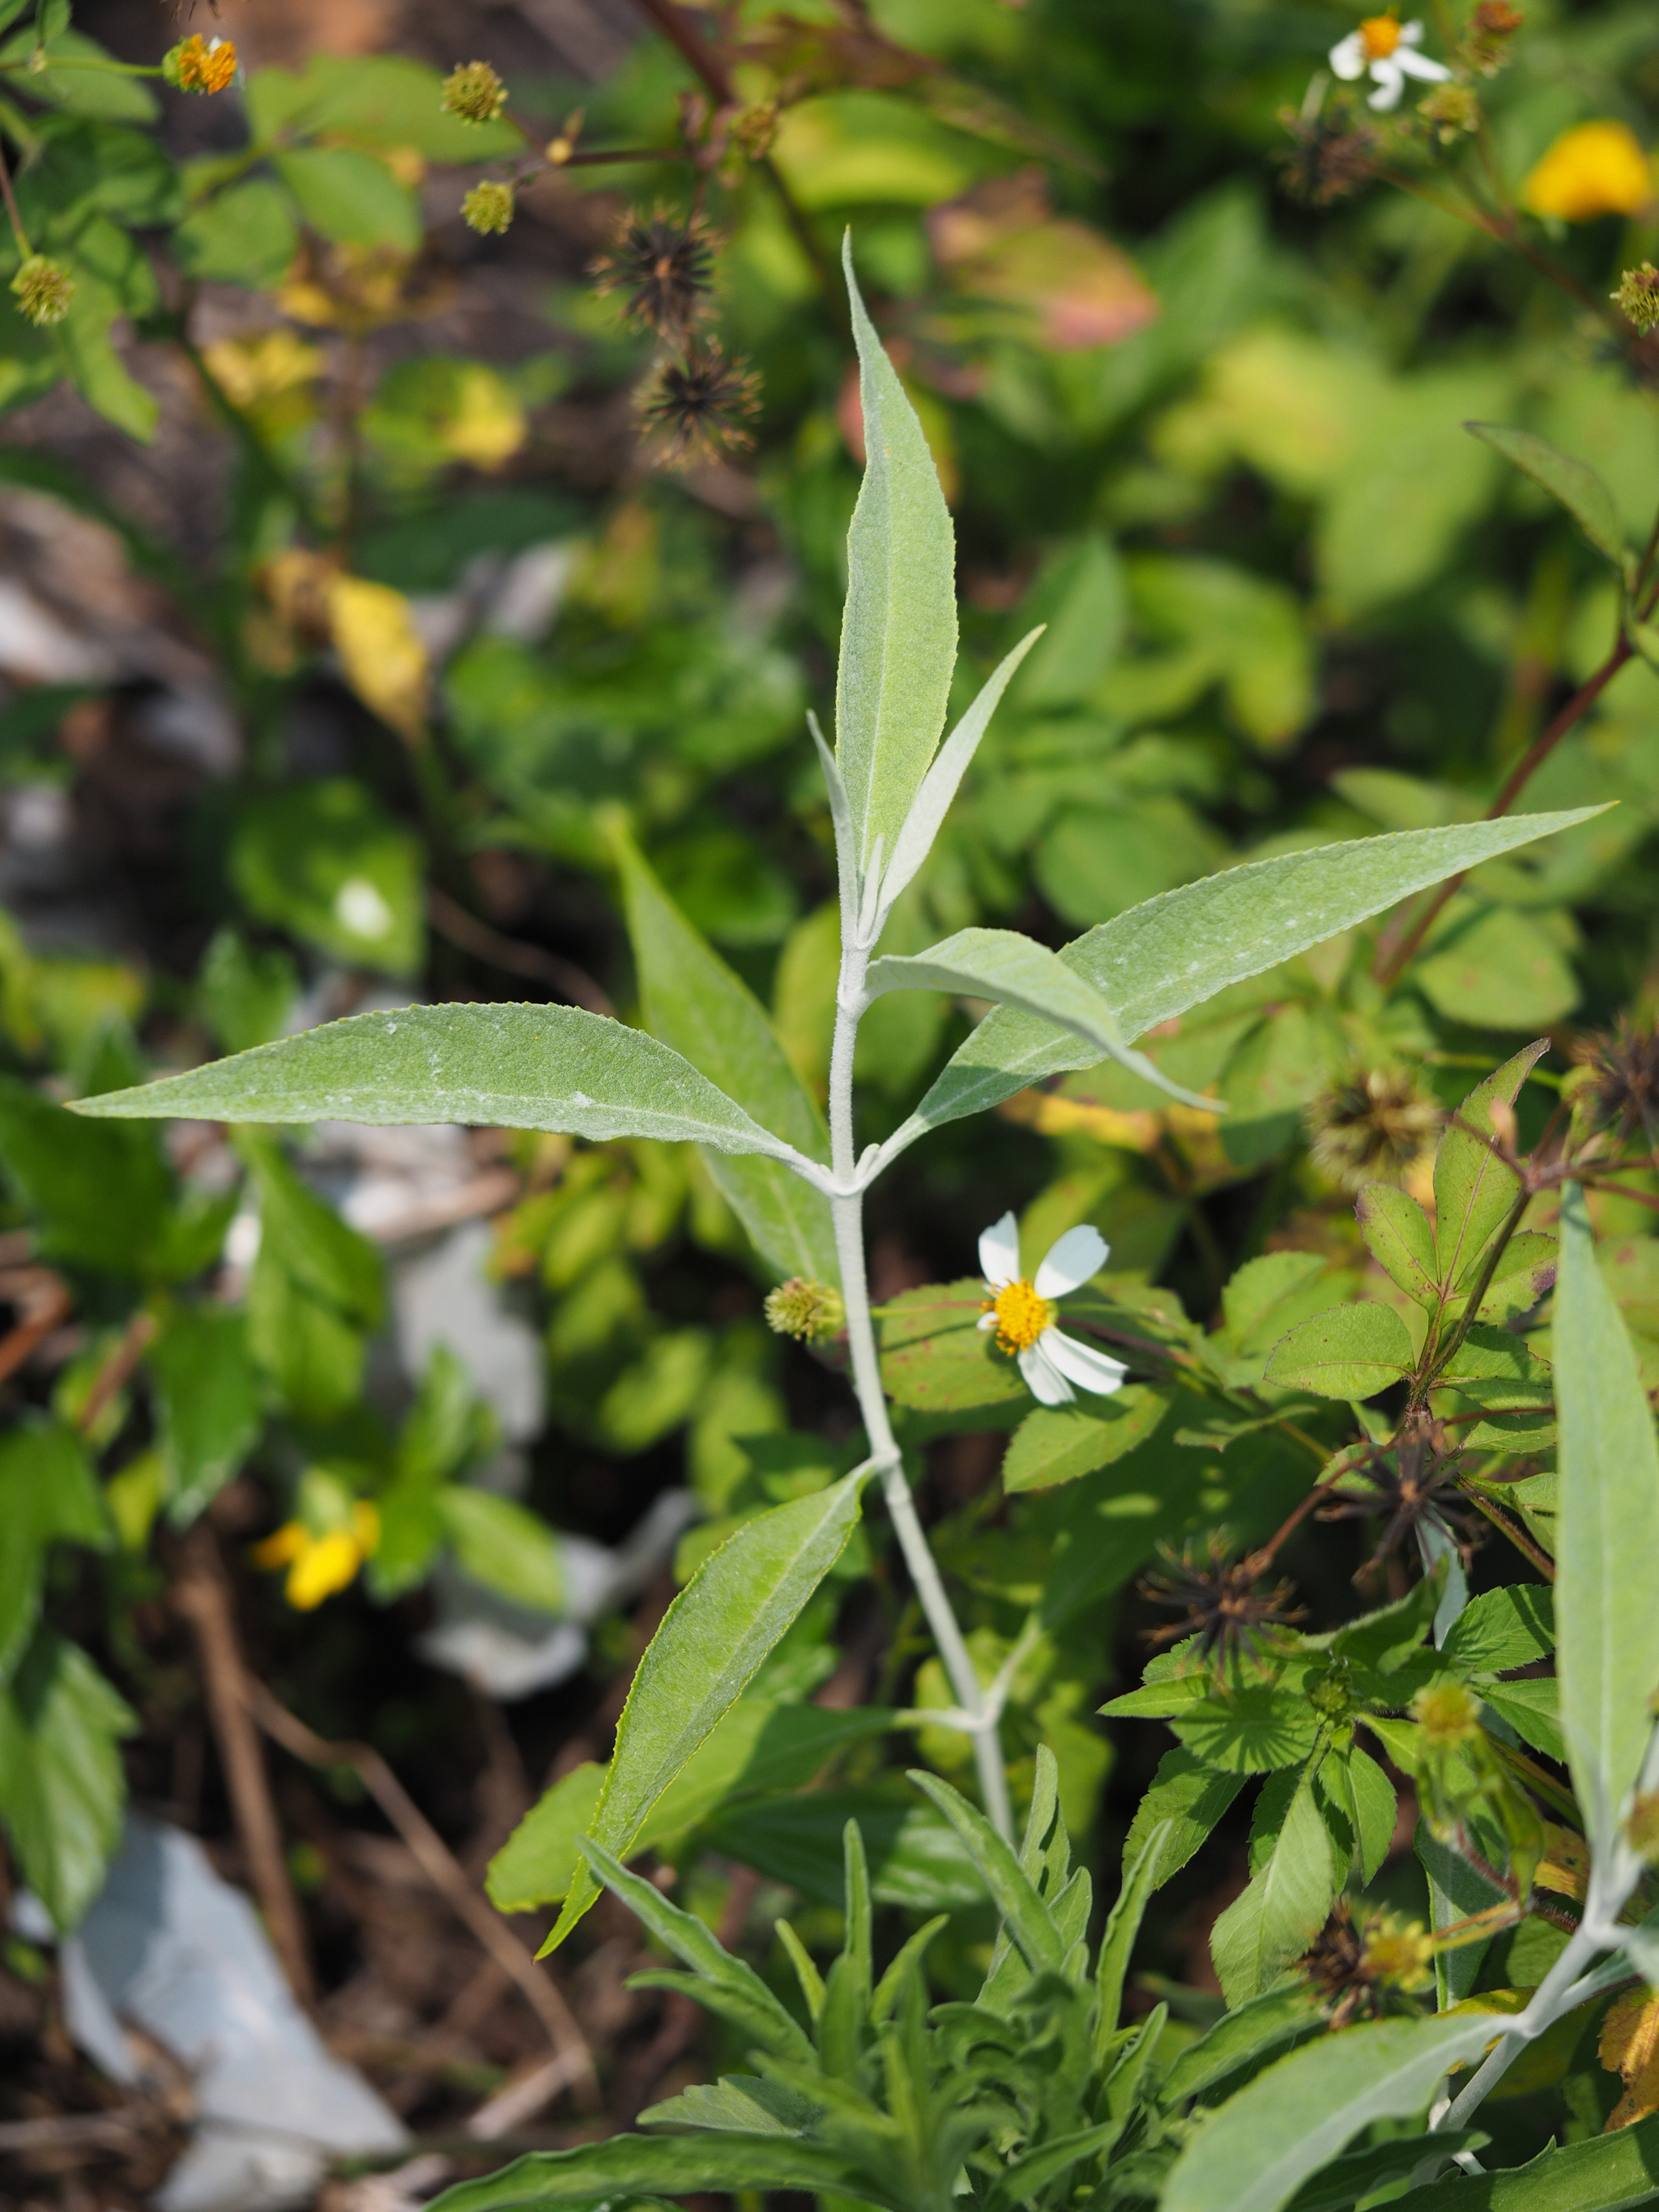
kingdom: Plantae
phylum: Tracheophyta
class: Magnoliopsida
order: Lamiales
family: Scrophulariaceae
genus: Buddleja
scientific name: Buddleja asiatica
